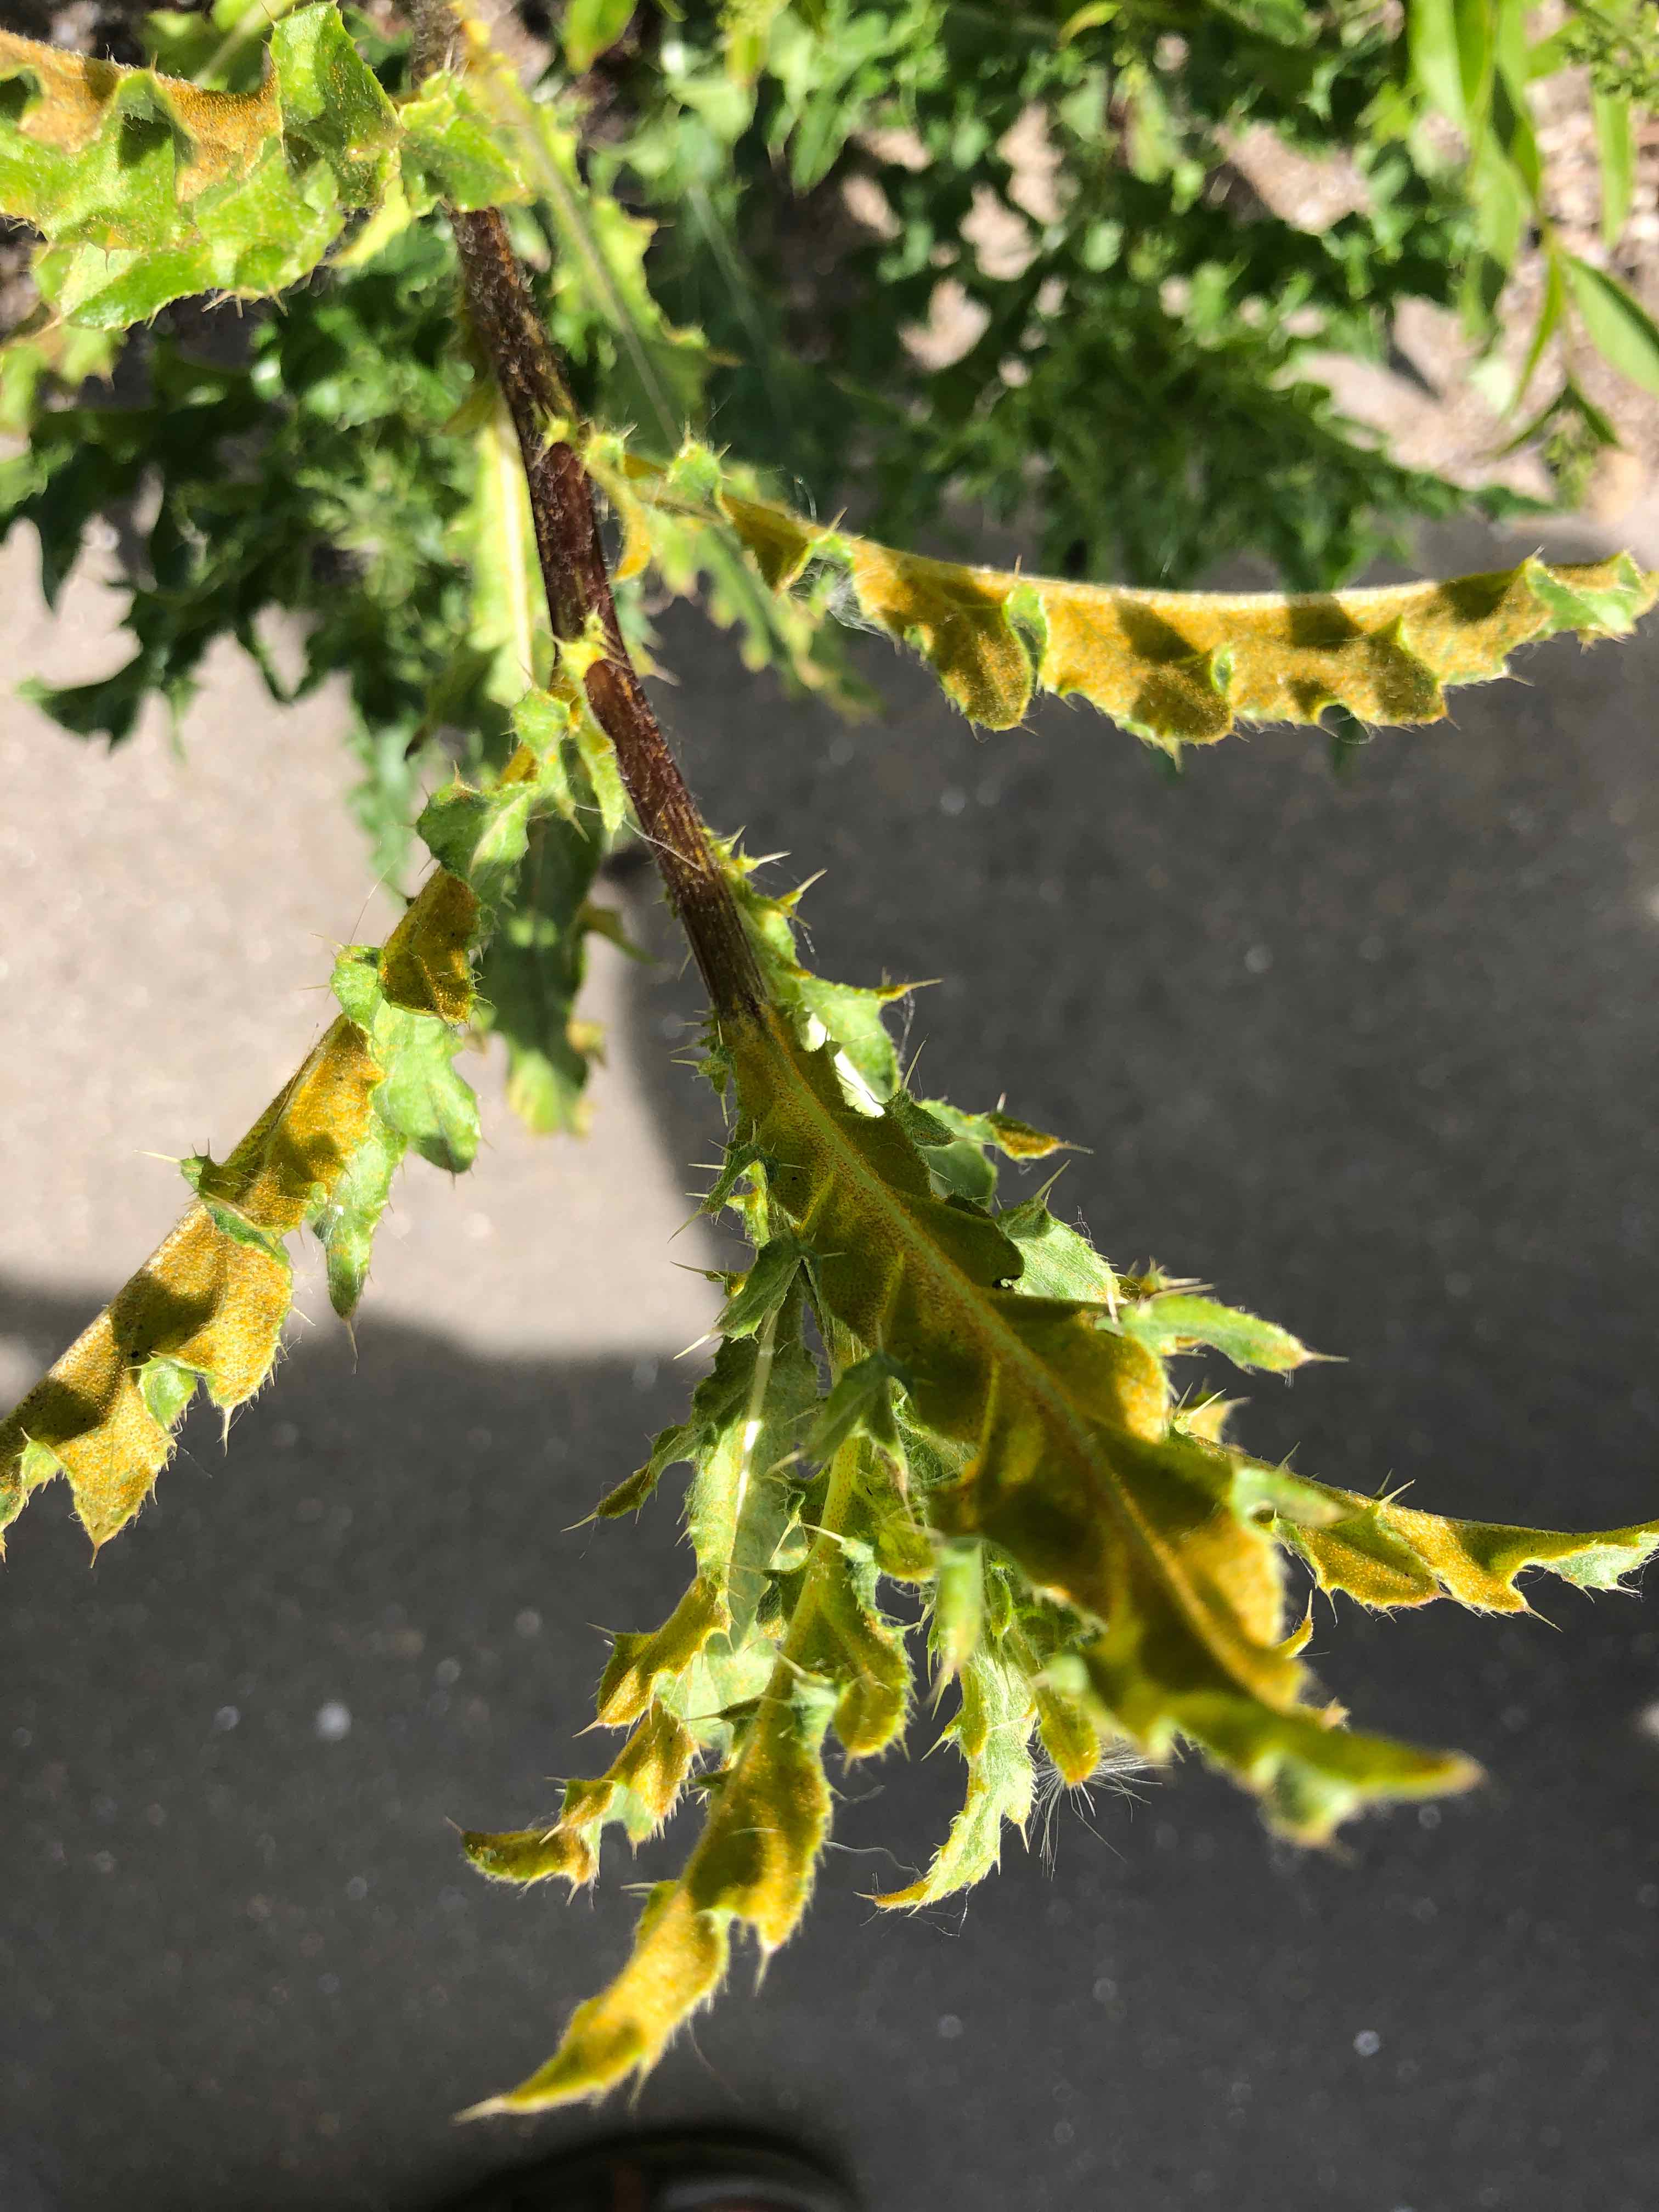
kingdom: Fungi
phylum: Basidiomycota
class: Pucciniomycetes
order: Pucciniales
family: Pucciniaceae
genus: Puccinia
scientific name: Puccinia suaveolens
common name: tidsel-tvecellerust
